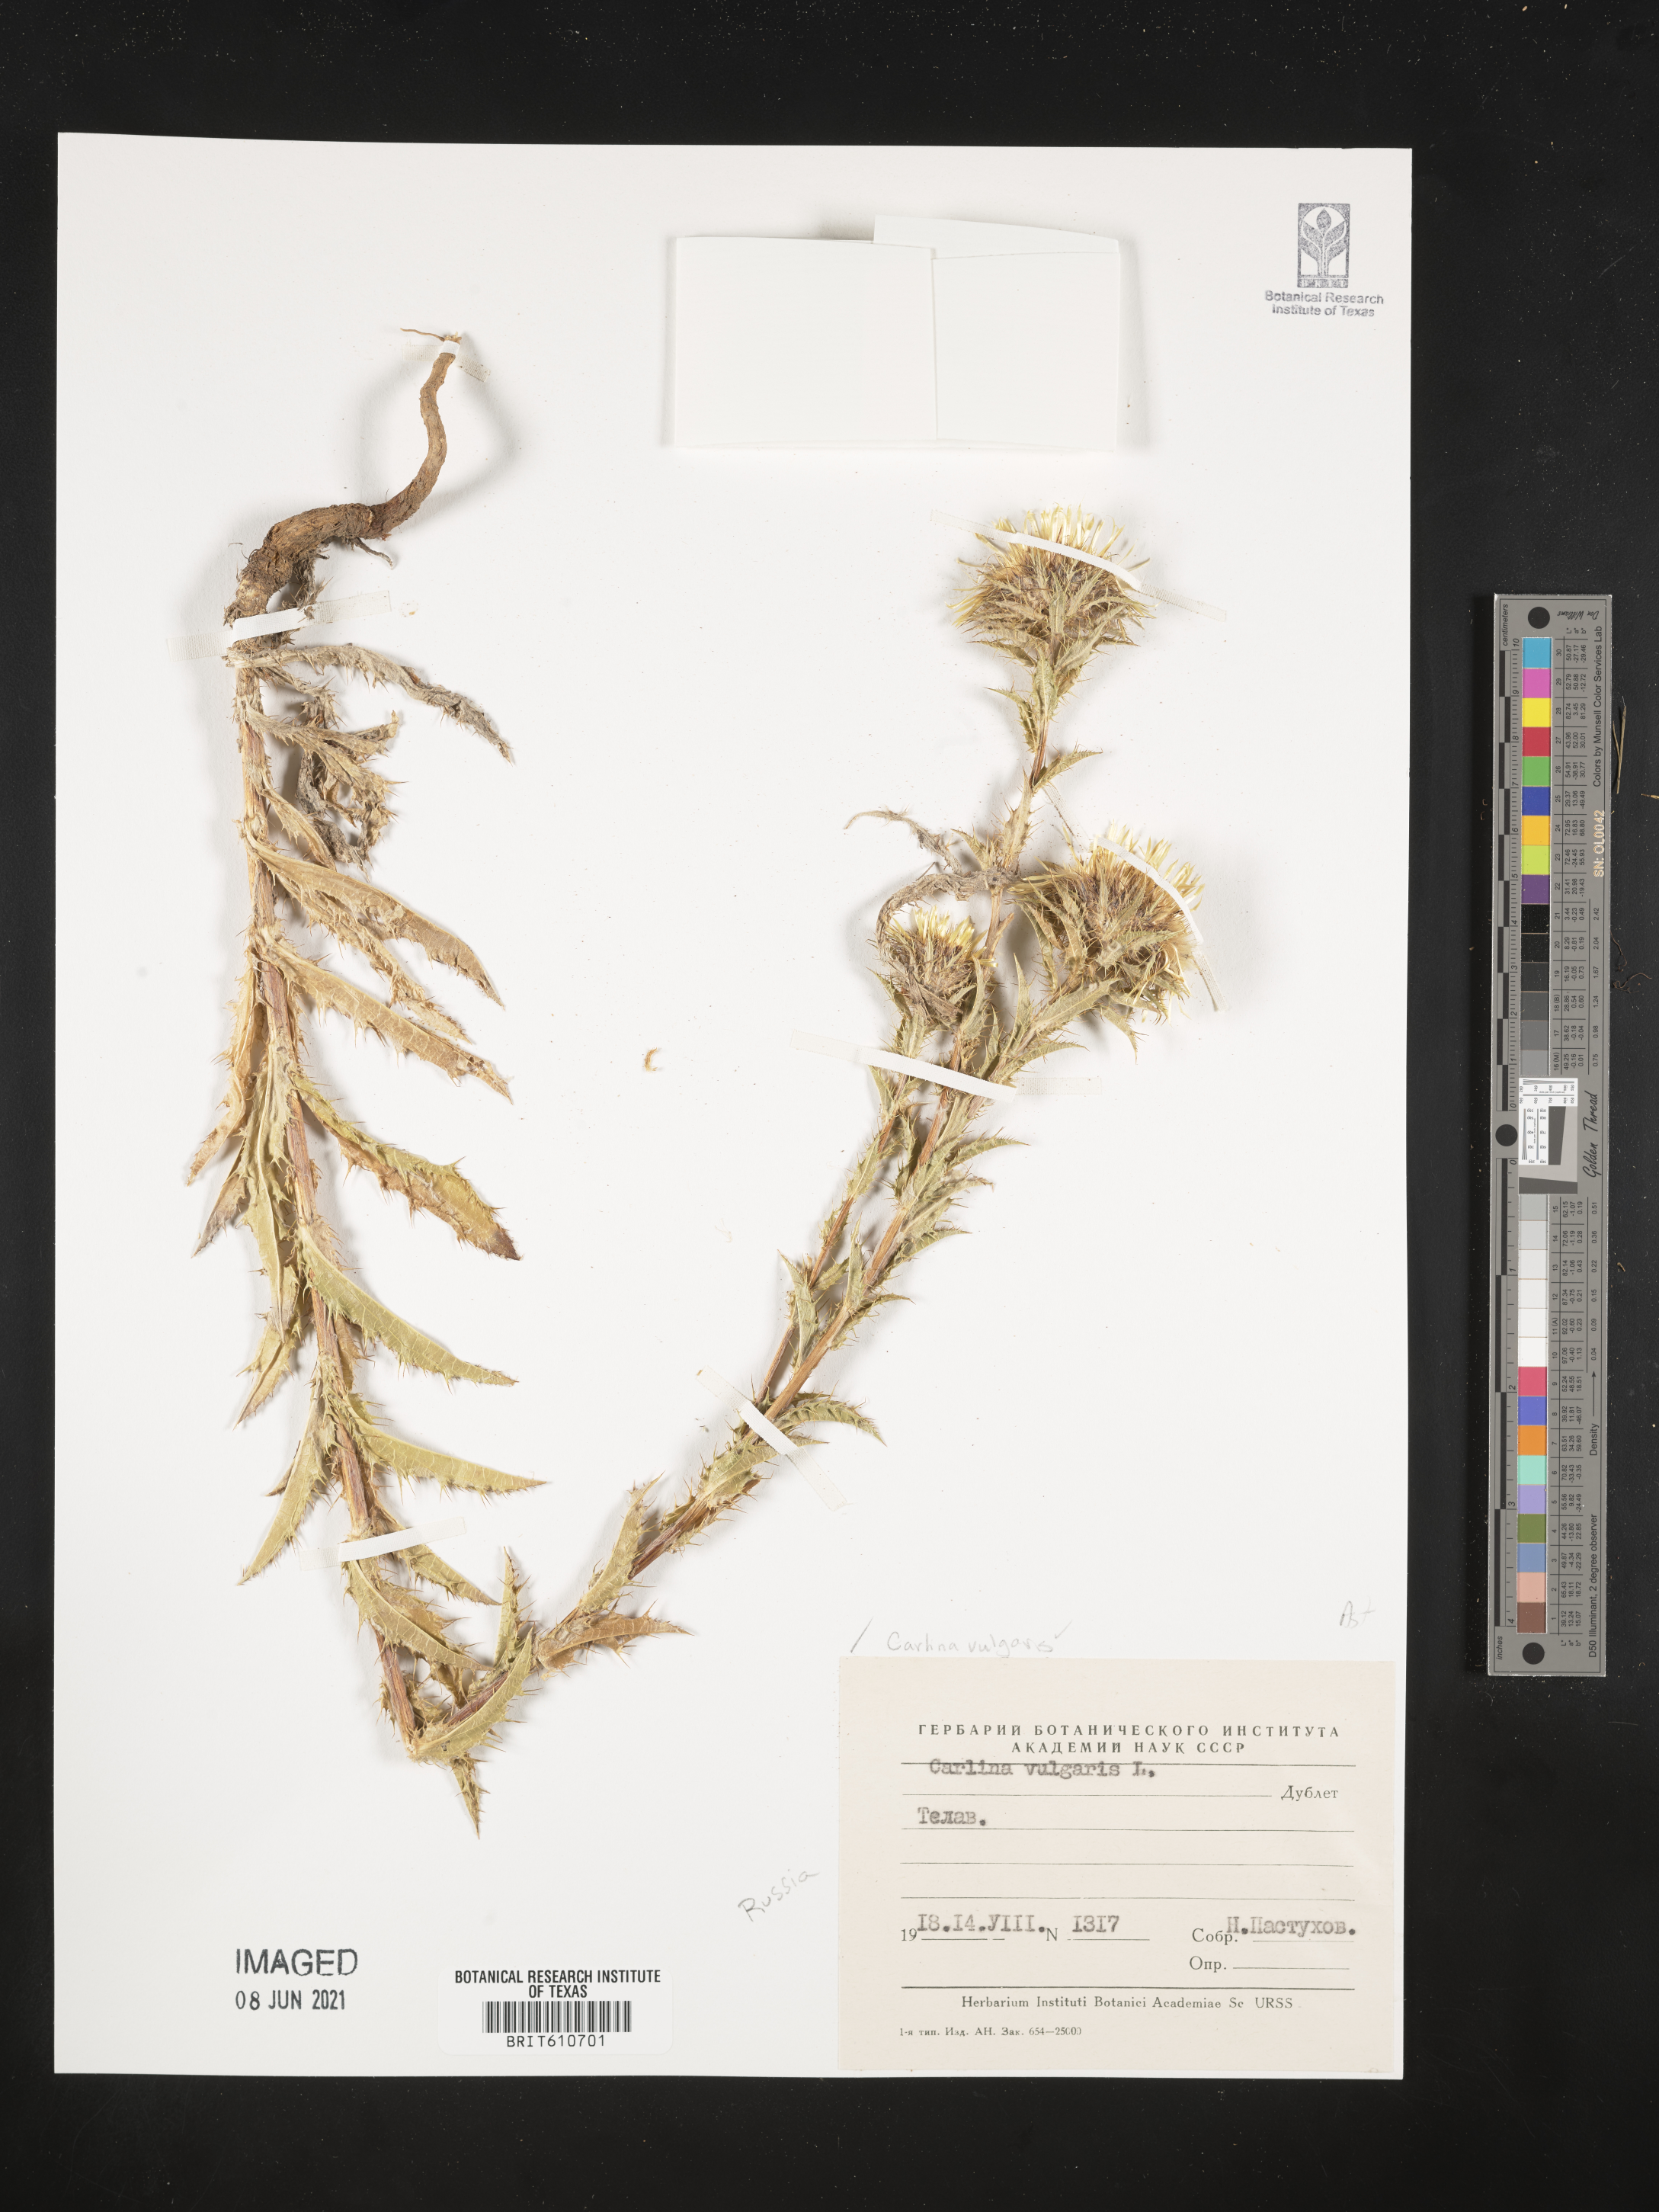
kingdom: Plantae
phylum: Tracheophyta
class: Magnoliopsida
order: Asterales
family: Asteraceae
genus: Carlina
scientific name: Carlina vulgaris
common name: Carline thistle
